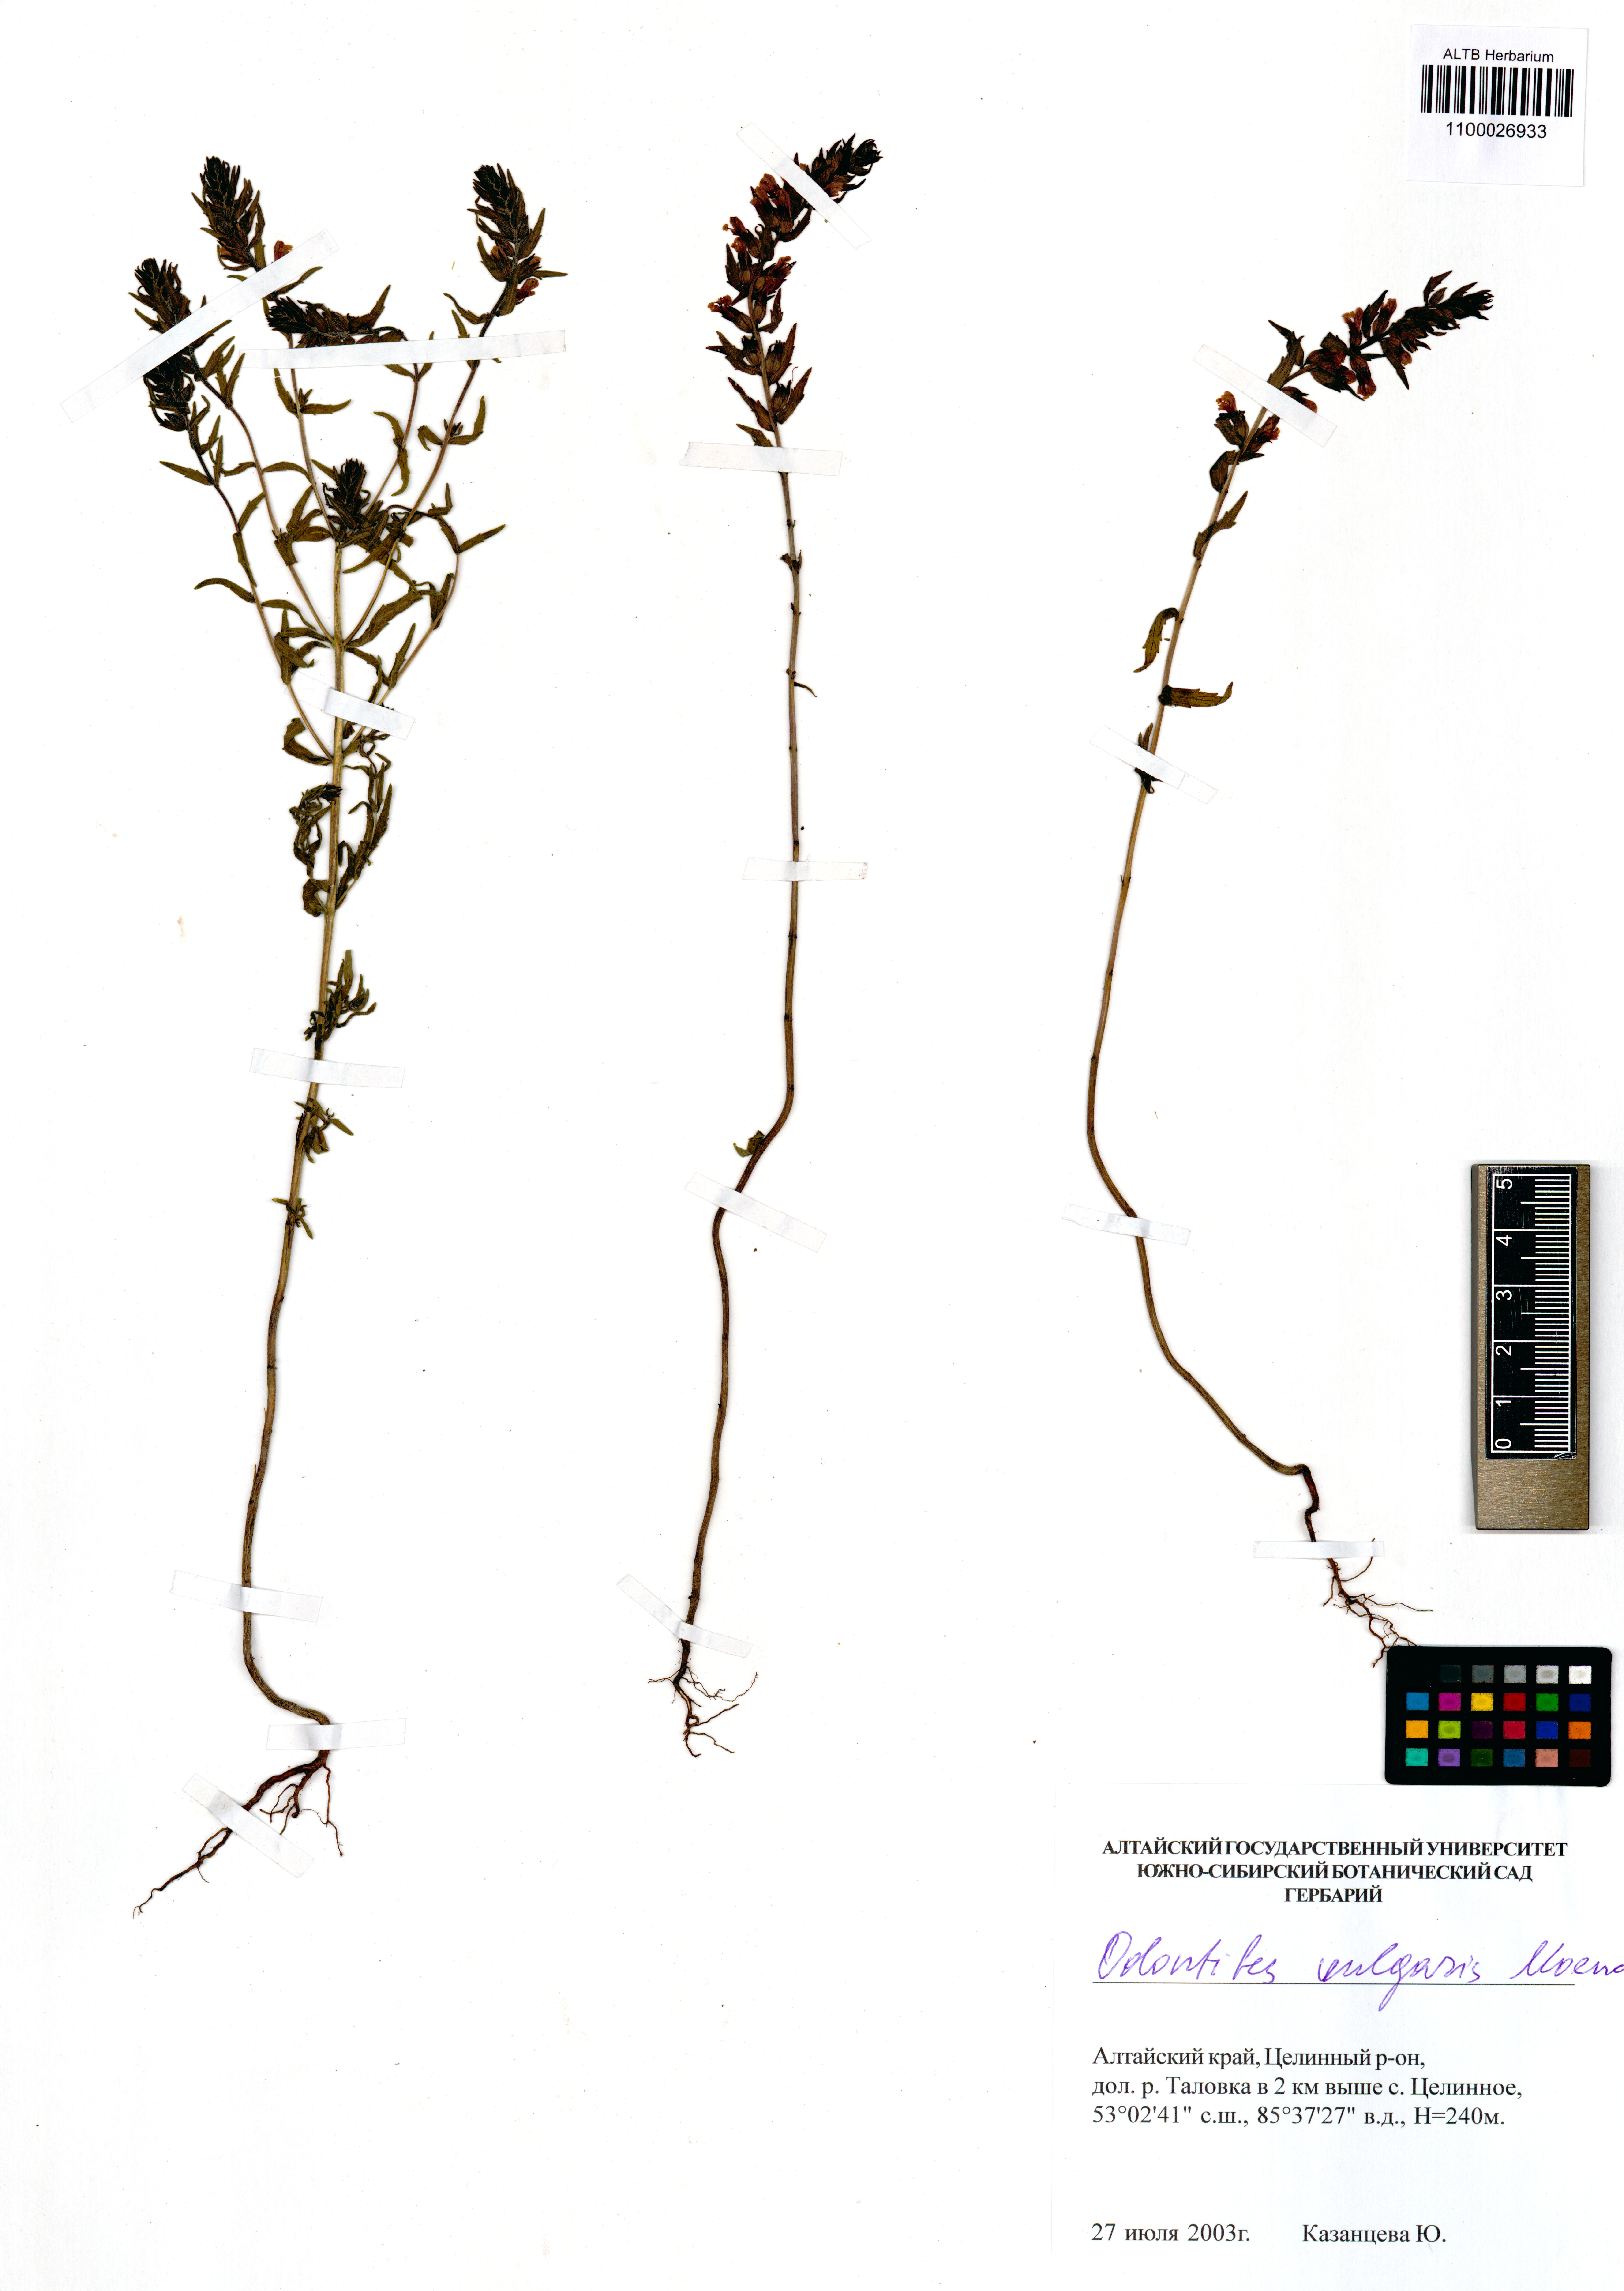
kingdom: Plantae
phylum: Tracheophyta
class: Magnoliopsida
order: Lamiales
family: Orobanchaceae
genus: Odontites
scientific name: Odontites vulgaris
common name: Broomrape
